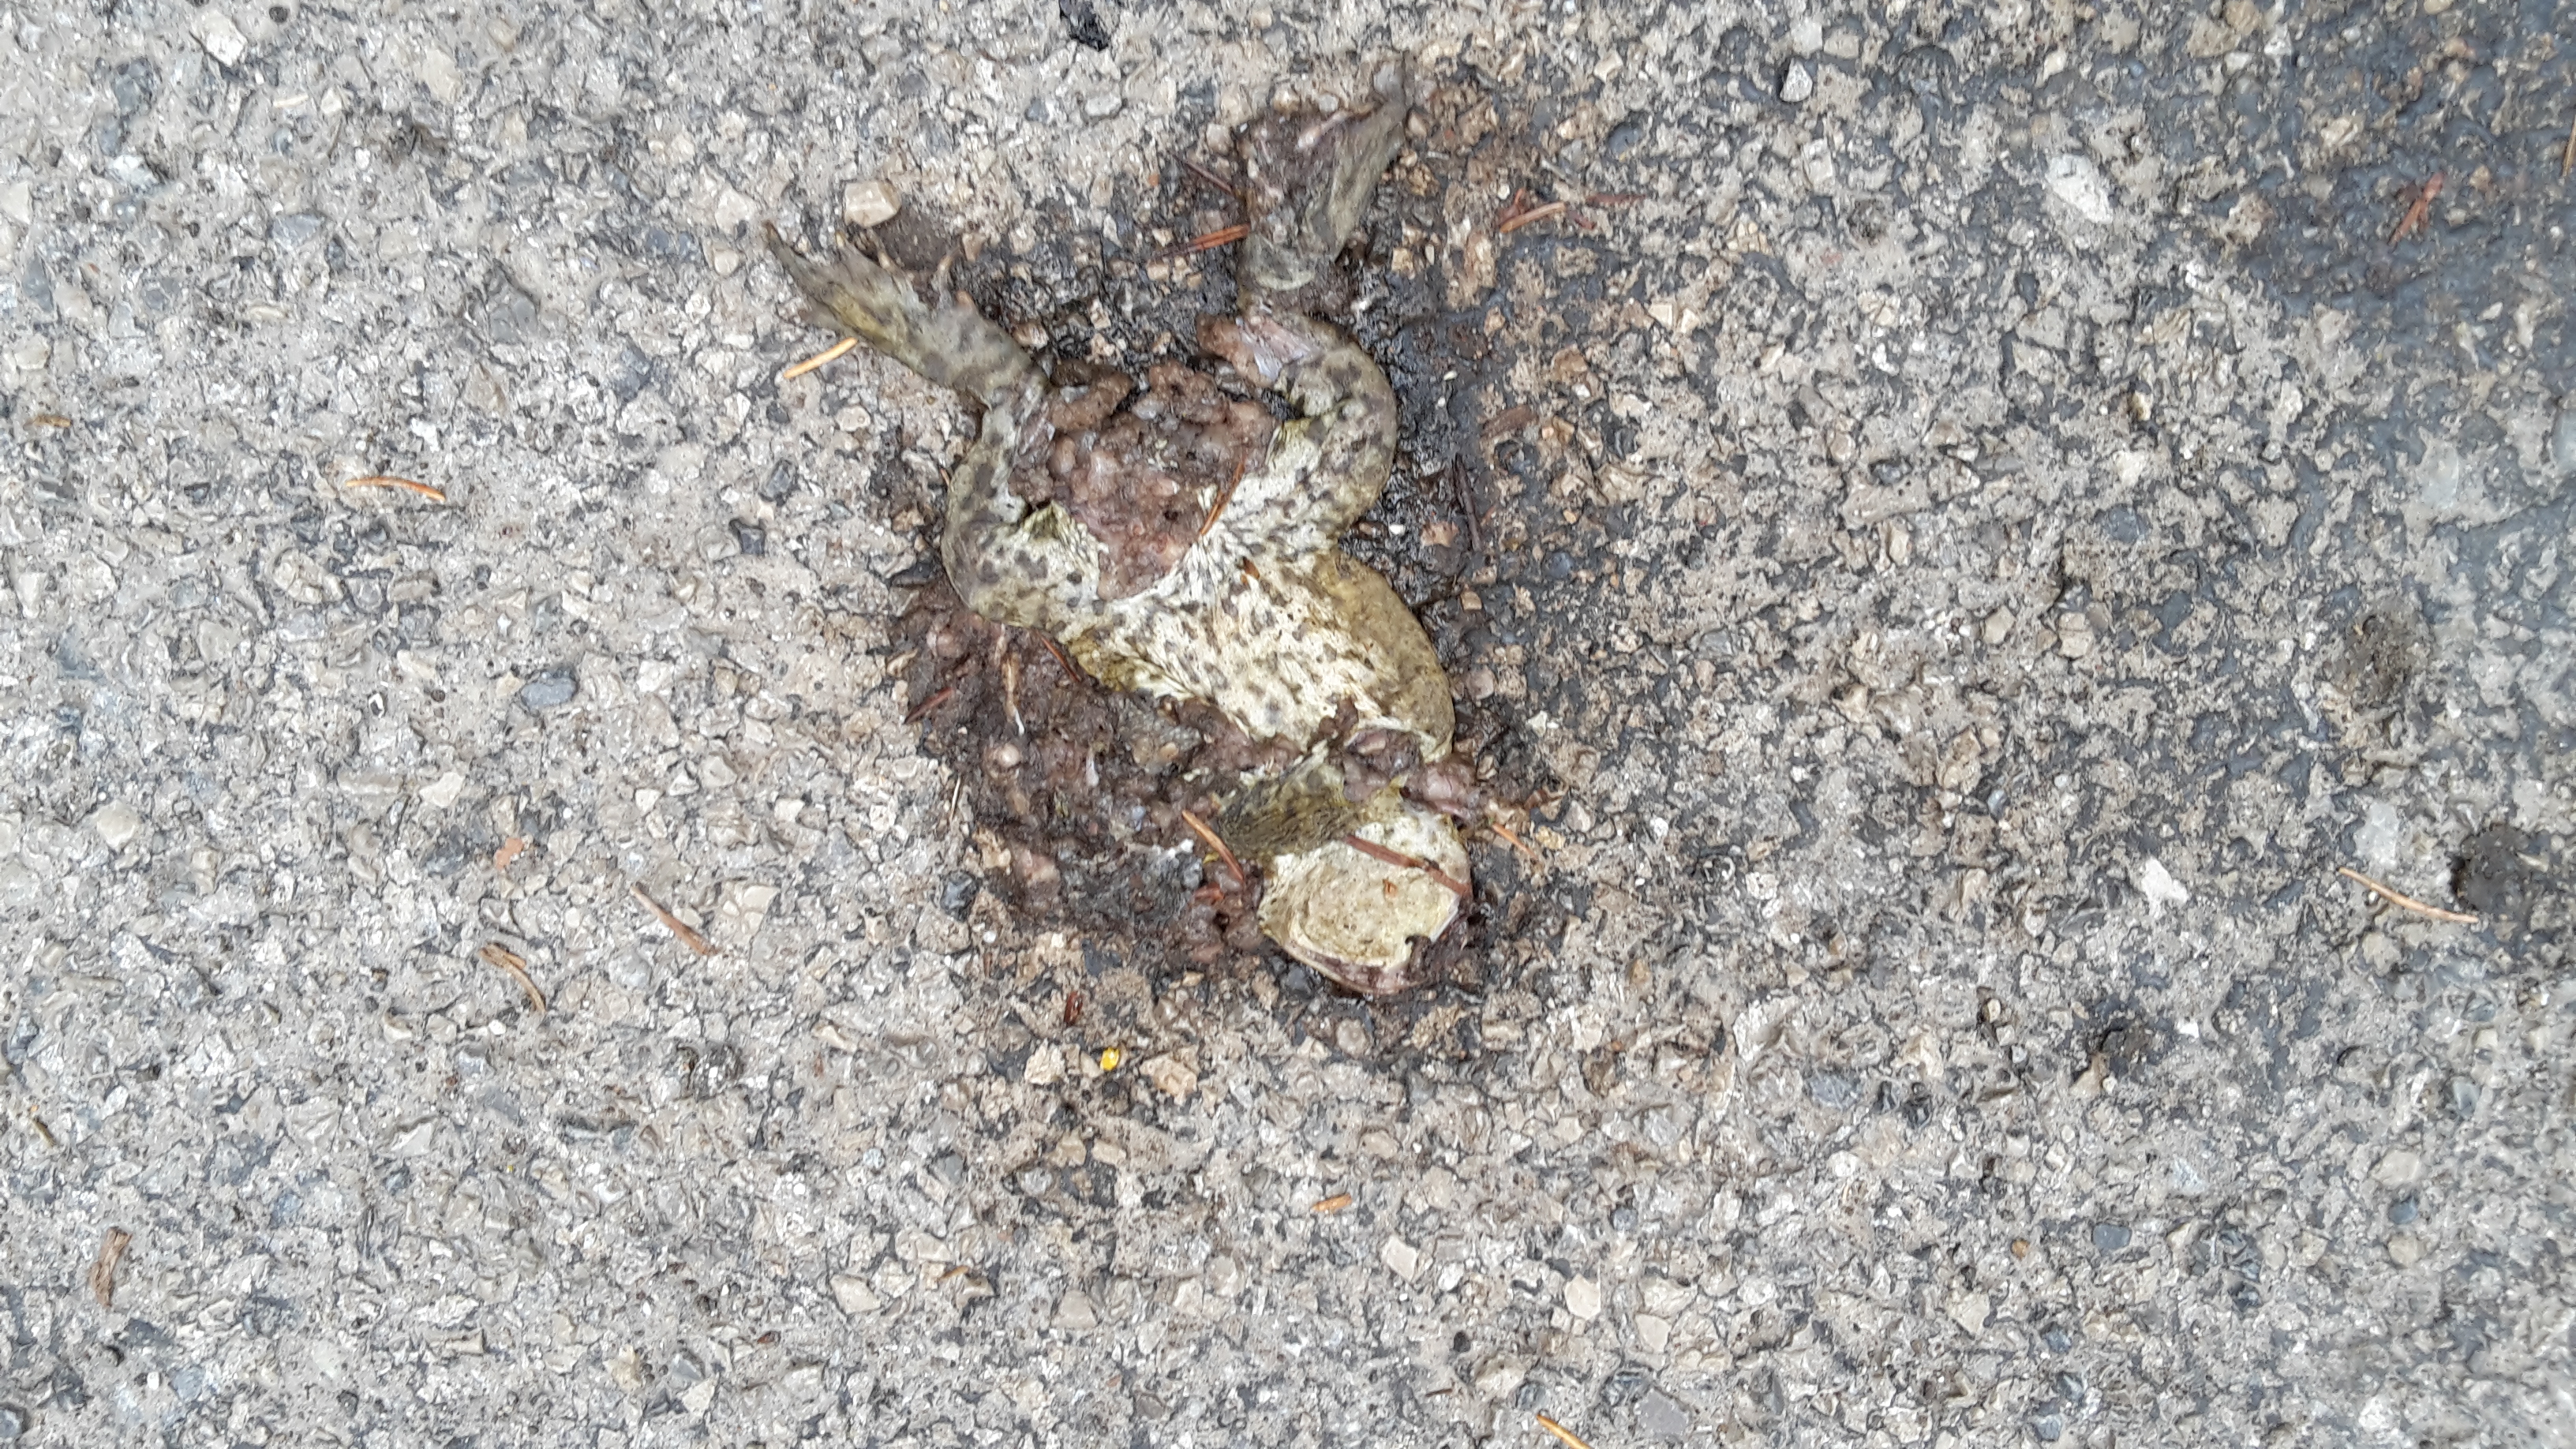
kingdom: Animalia
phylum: Chordata
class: Amphibia
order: Anura
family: Bufonidae
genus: Bufo
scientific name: Bufo bufo
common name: Common toad
